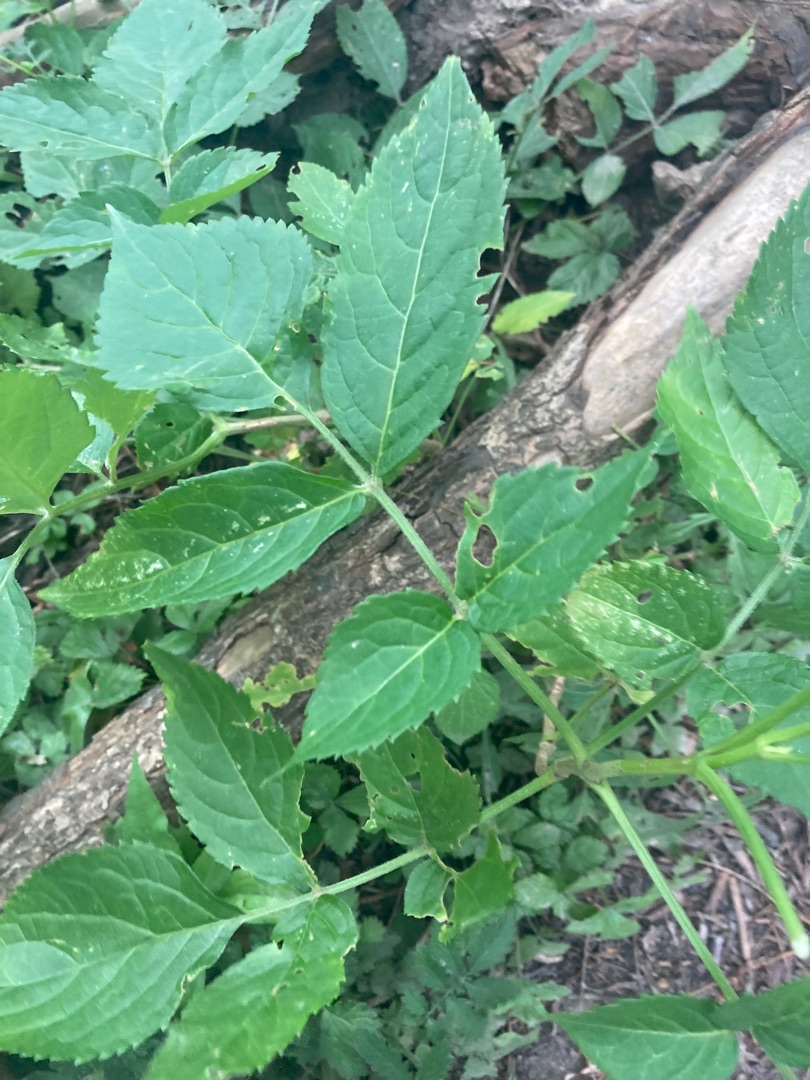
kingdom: Plantae
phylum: Tracheophyta
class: Magnoliopsida
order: Dipsacales
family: Viburnaceae
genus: Sambucus
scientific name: Sambucus nigra
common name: Almindelig hyld
